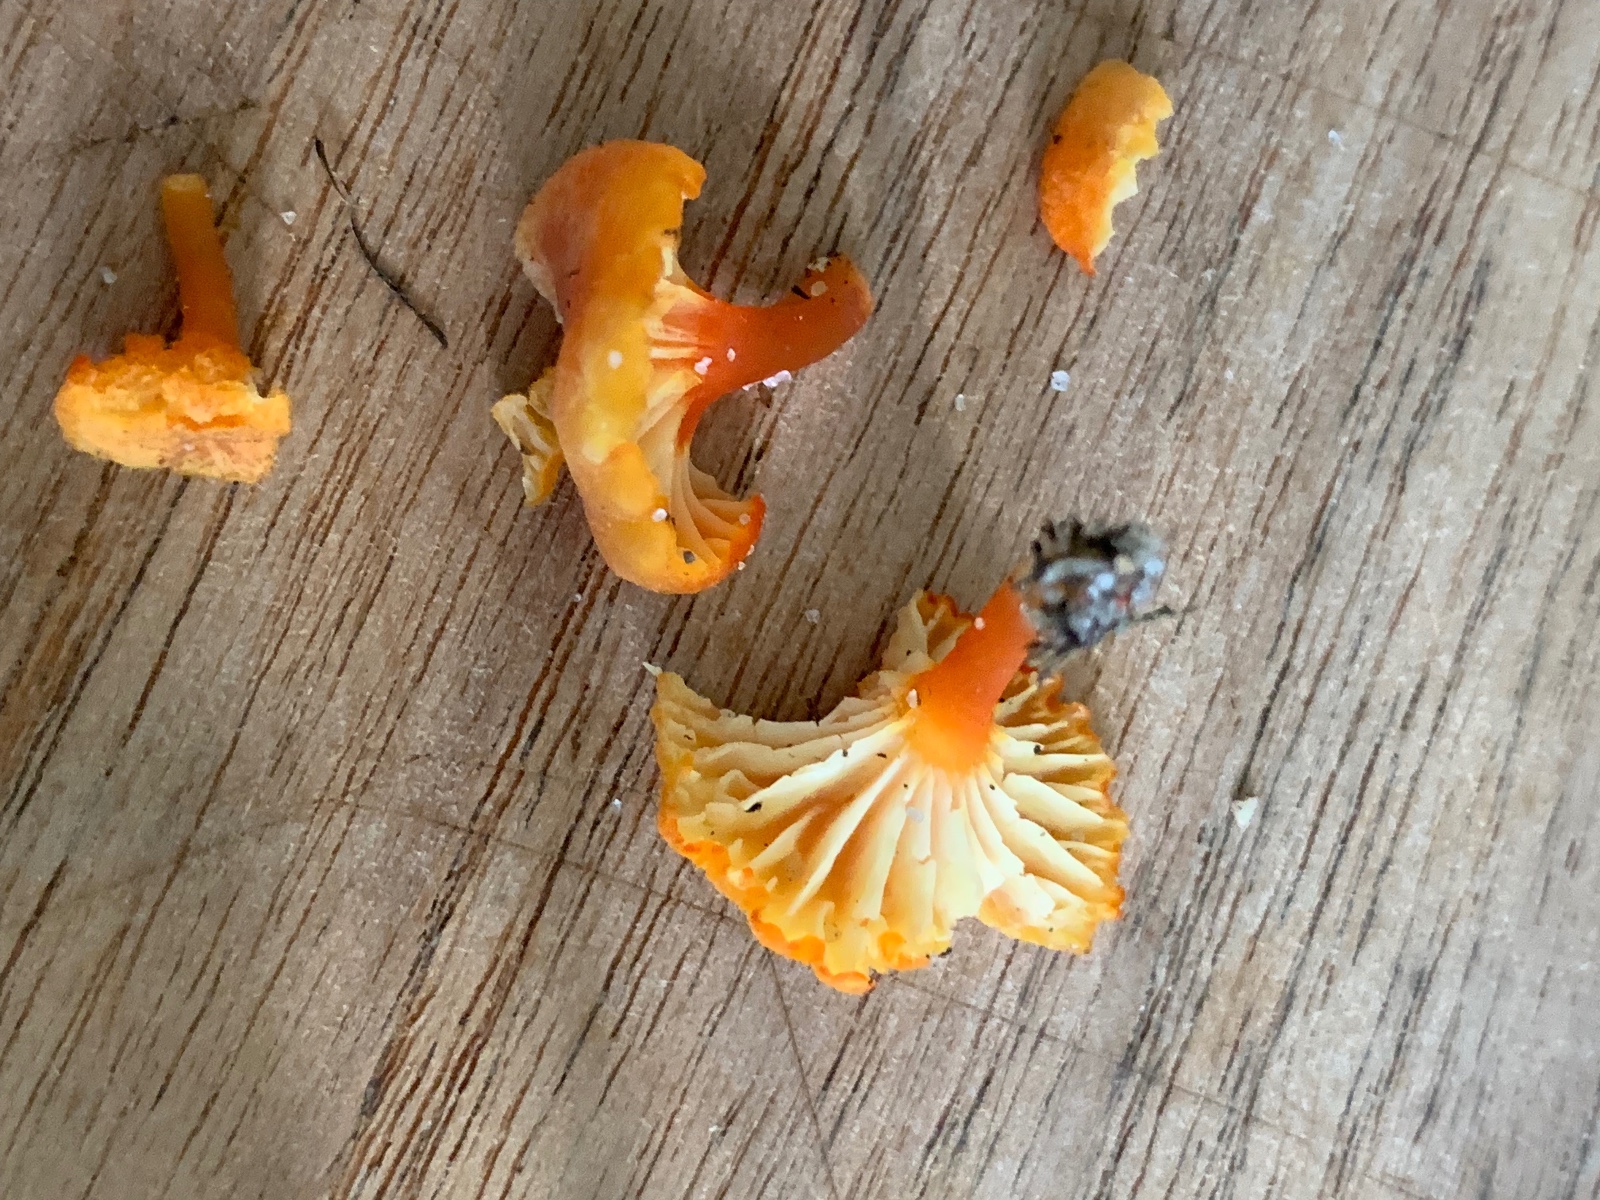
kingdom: Fungi
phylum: Basidiomycota
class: Agaricomycetes
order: Agaricales
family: Hygrophoraceae
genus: Hygrocybe
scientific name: Hygrocybe cantharellus
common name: kantarel-vokshat
